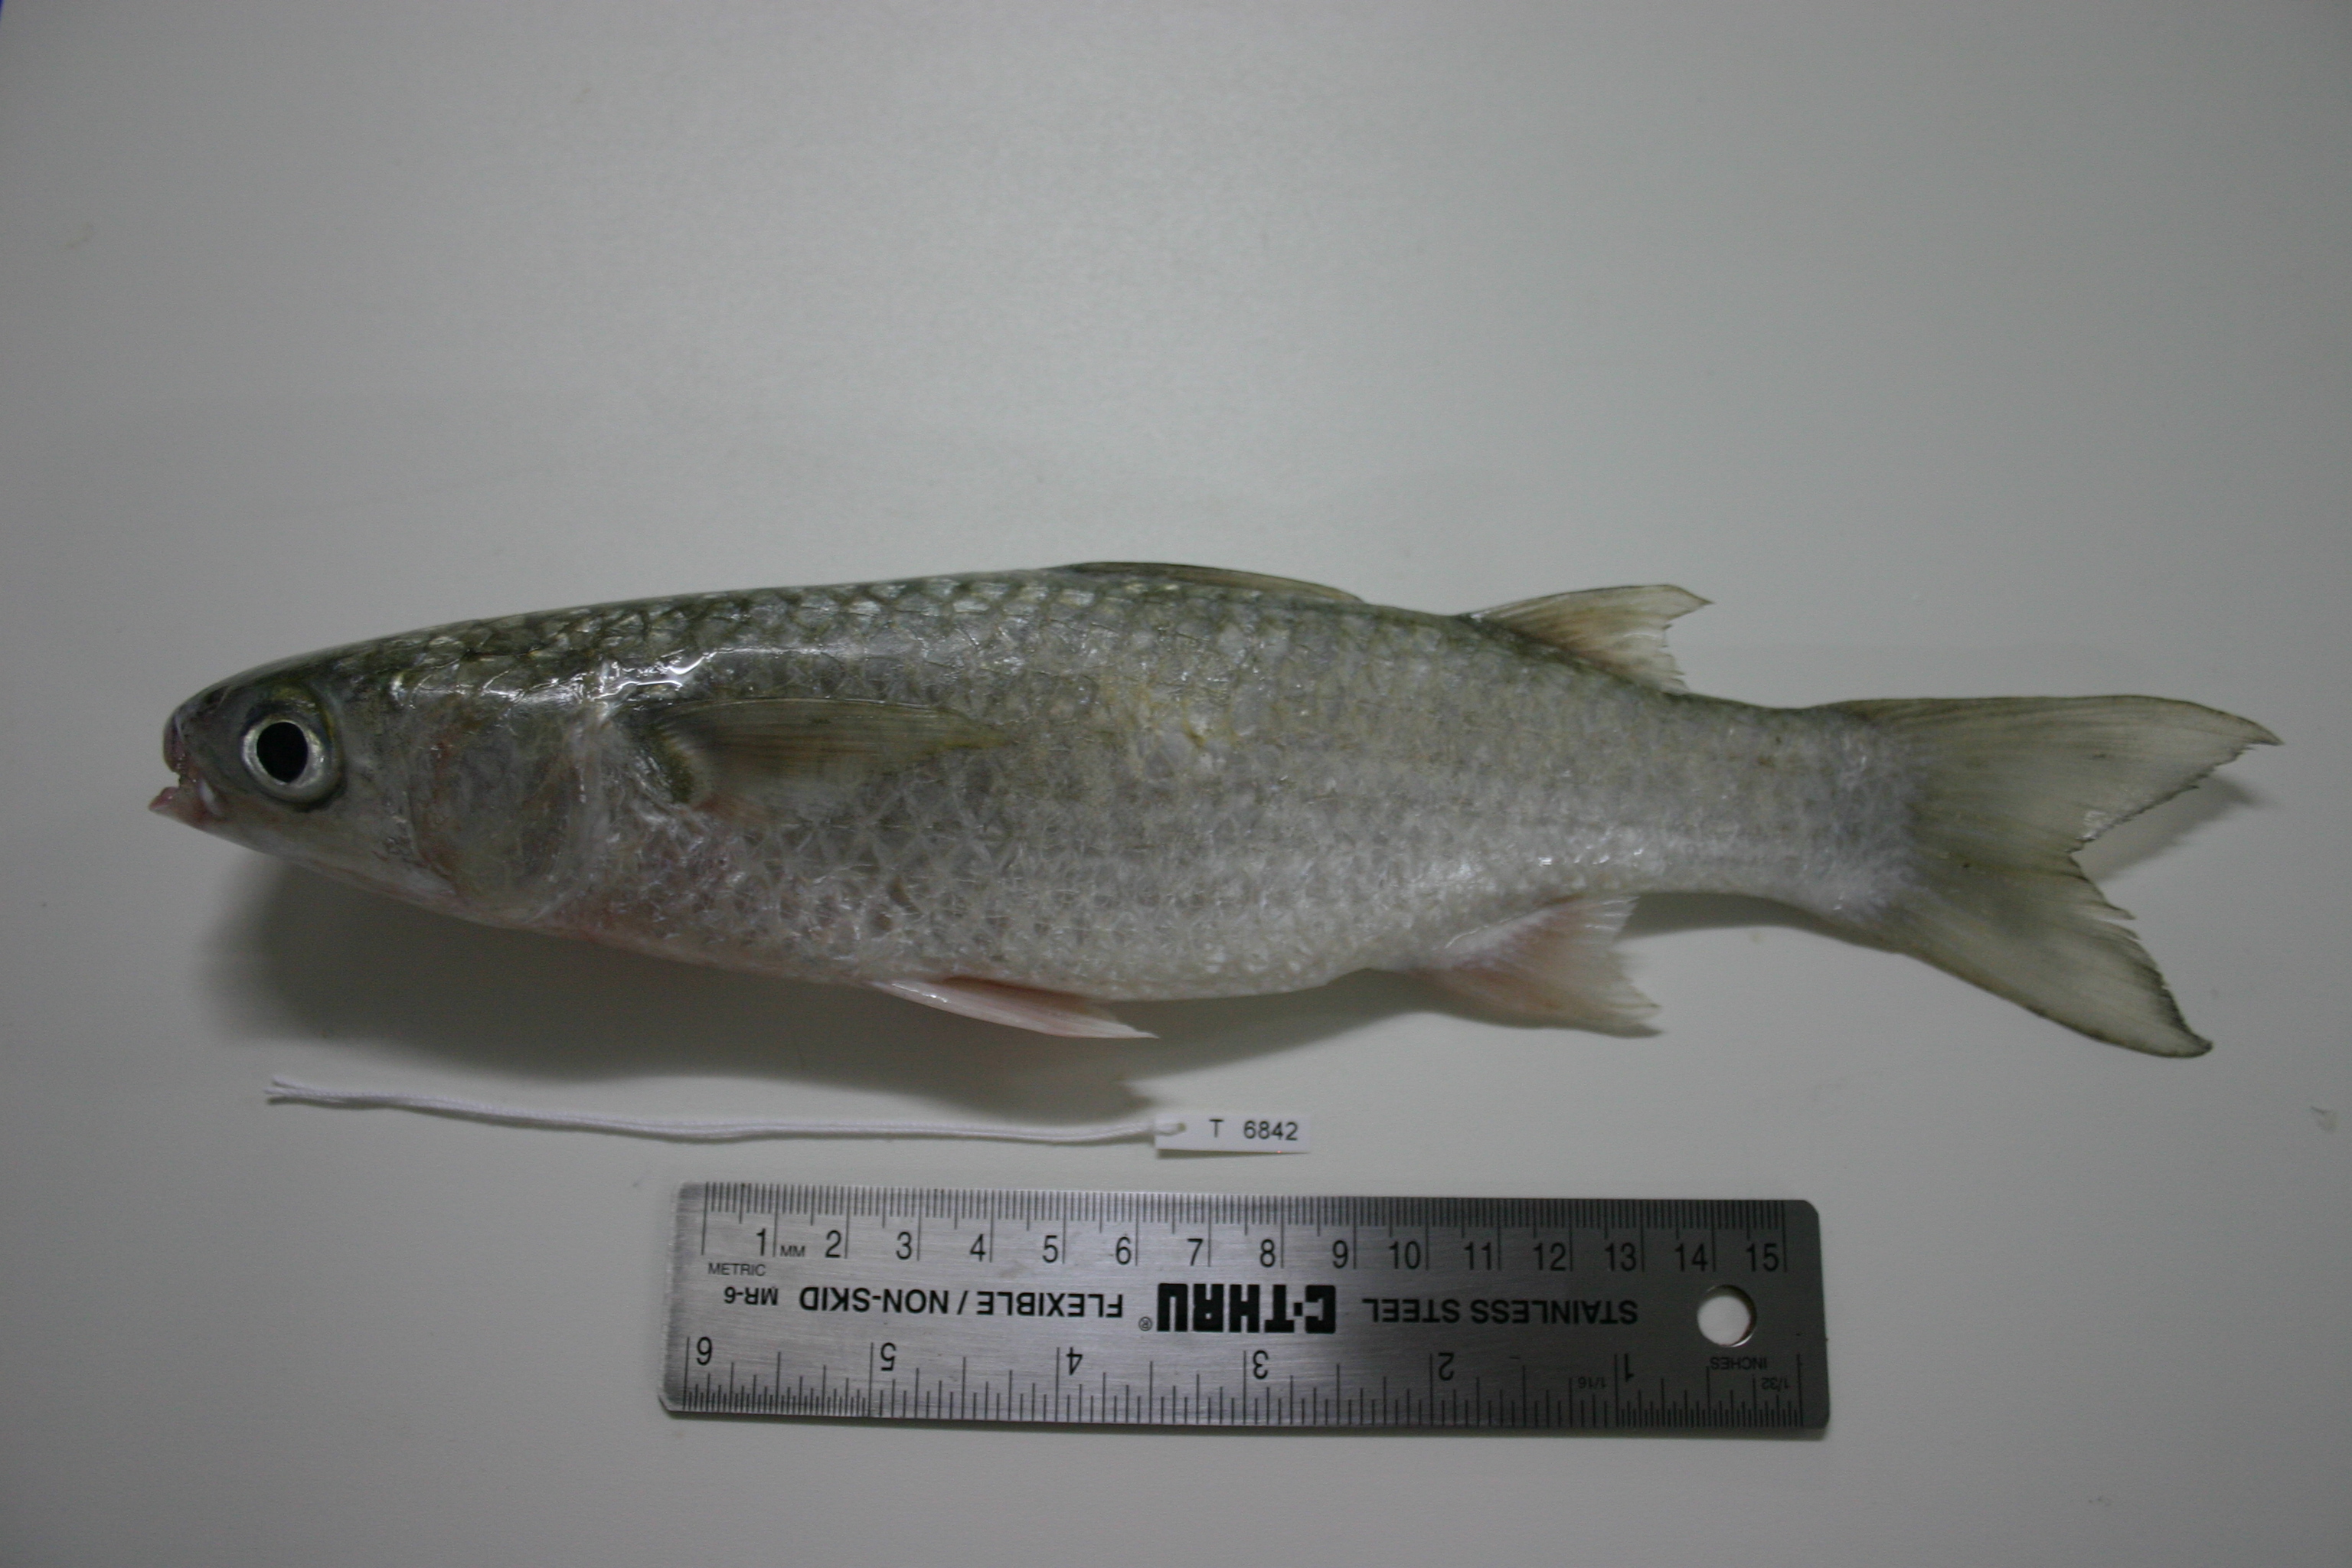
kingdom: Animalia
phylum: Chordata
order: Mugiliformes
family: Mugilidae
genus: Planiliza
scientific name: Planiliza macrolepis
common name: Largescale mullet
